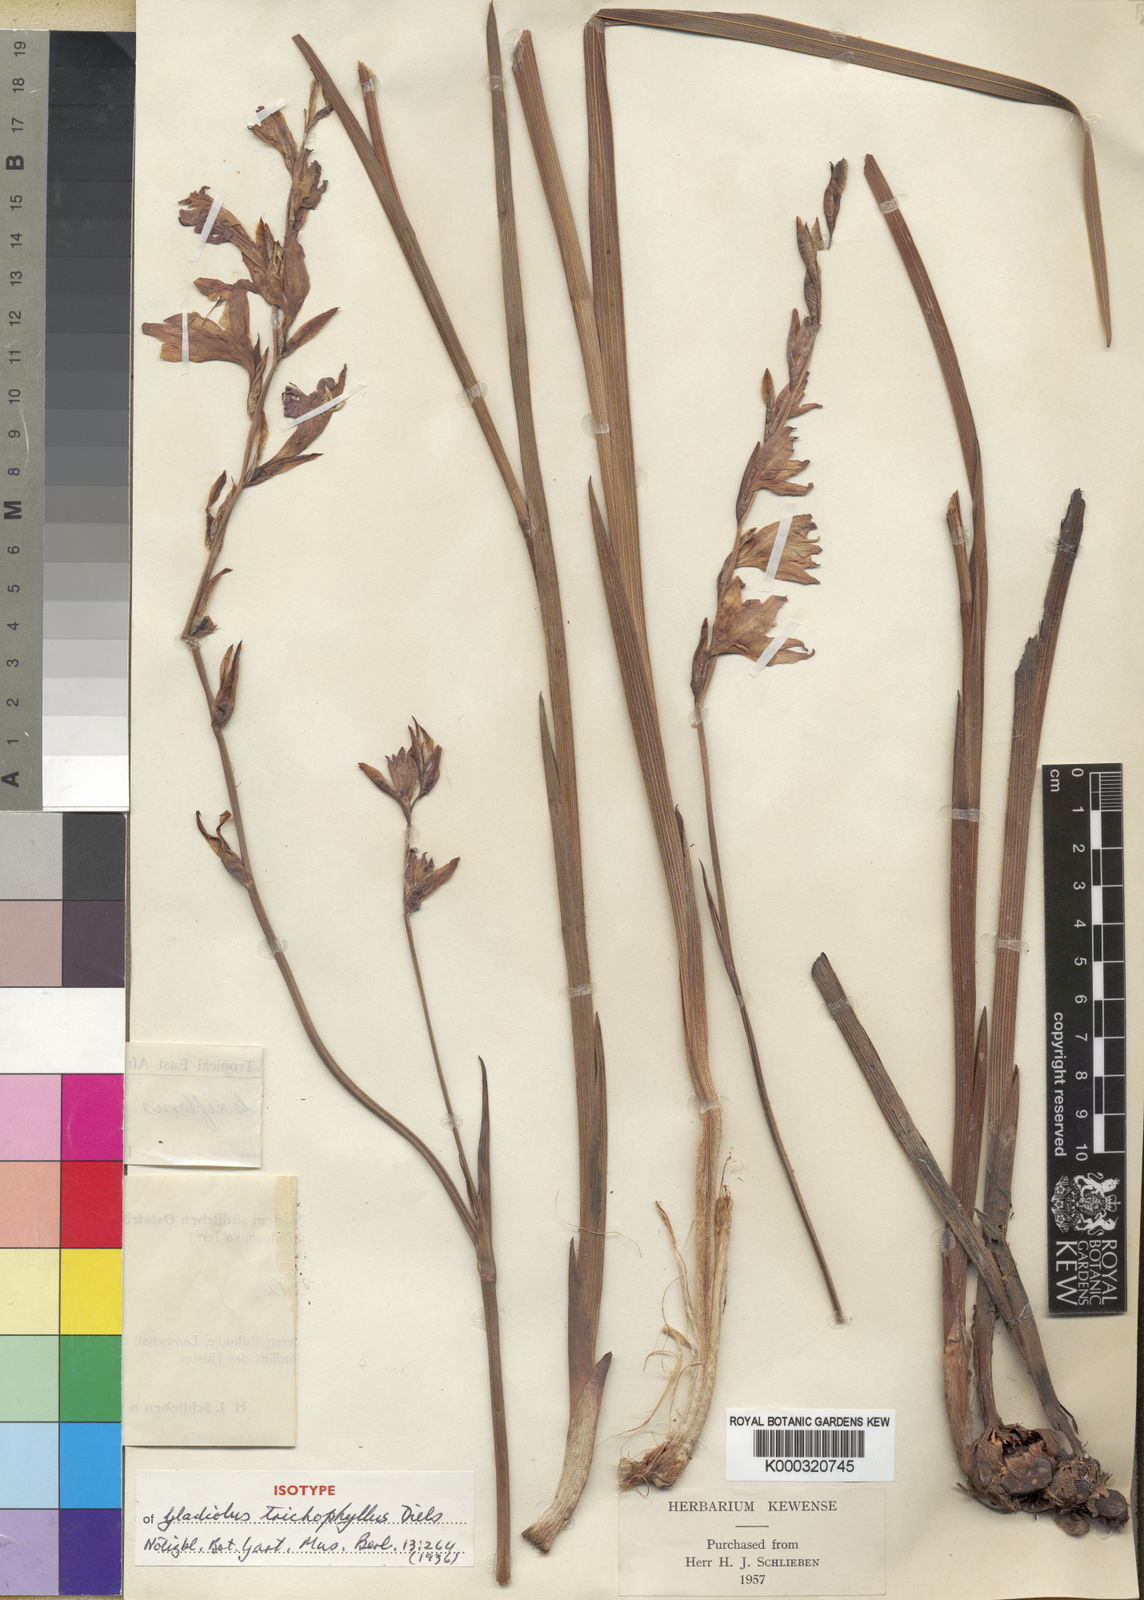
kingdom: Plantae
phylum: Tracheophyta
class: Liliopsida
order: Asparagales
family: Iridaceae
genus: Gladiolus
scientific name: Gladiolus laxiflorus
